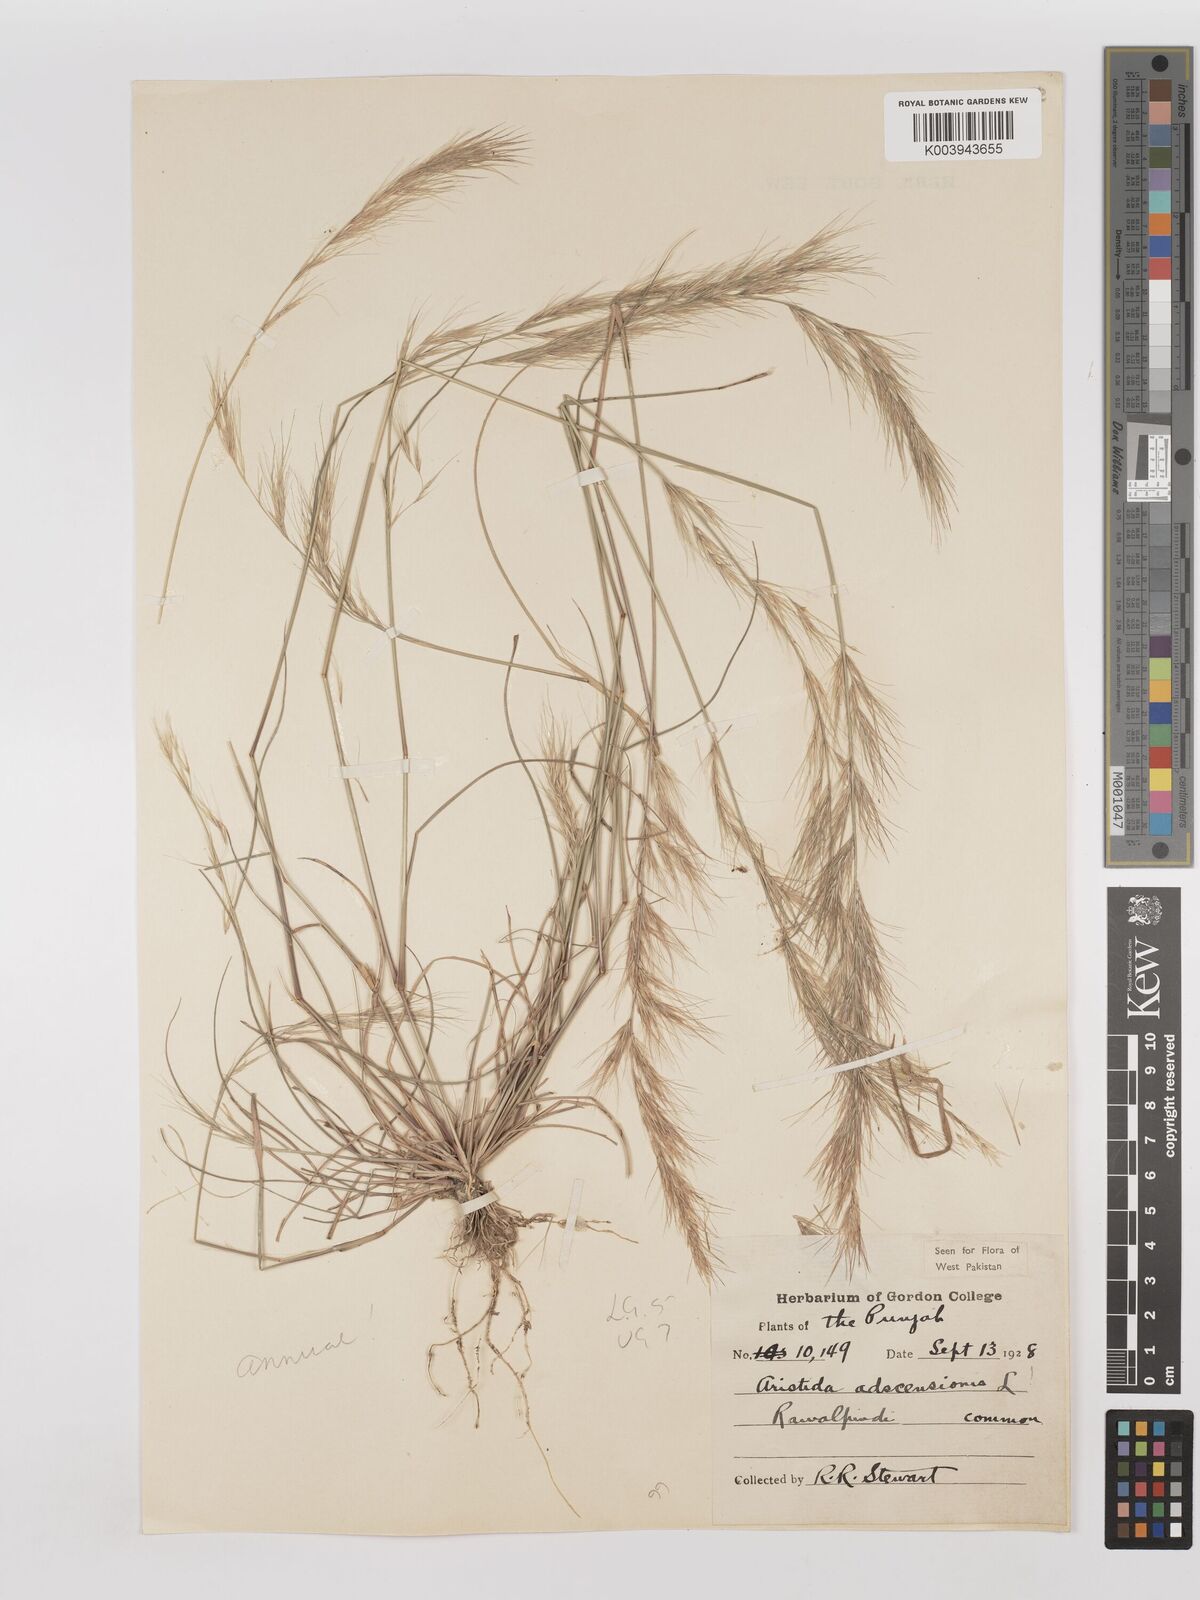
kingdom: Plantae
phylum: Tracheophyta
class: Liliopsida
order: Poales
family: Poaceae
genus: Aristida
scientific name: Aristida adscensionis
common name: Sixweeks threeawn
